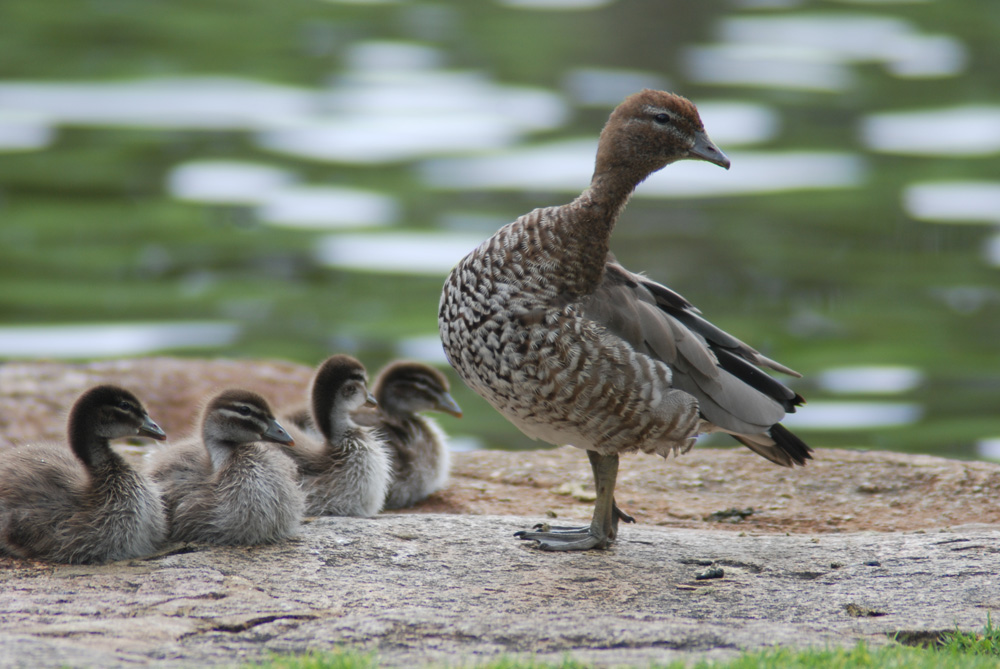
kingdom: Animalia
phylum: Chordata
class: Aves
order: Anseriformes
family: Anatidae
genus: Chenonetta
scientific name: Chenonetta jubata
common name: Maned duck
